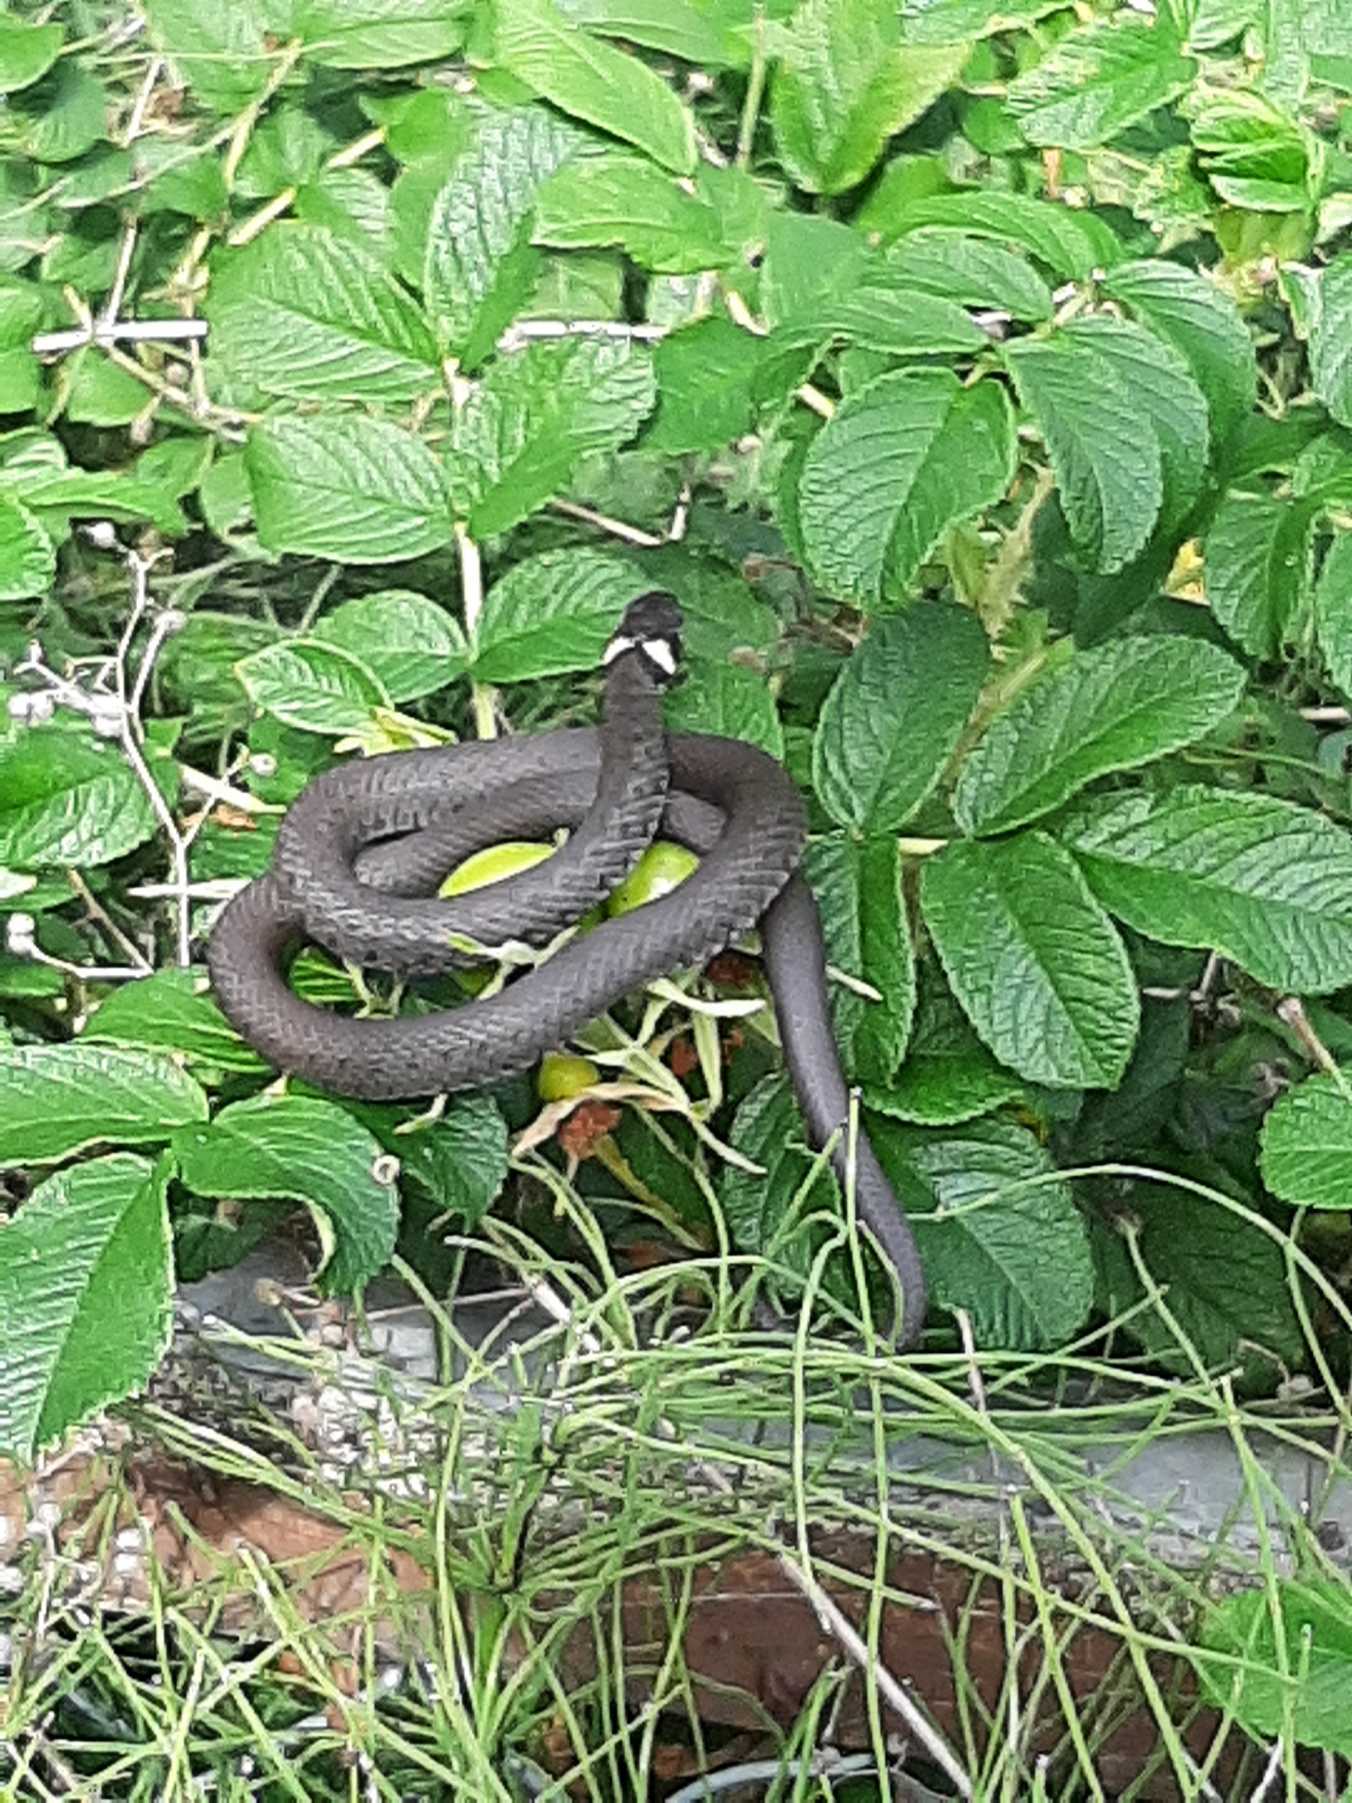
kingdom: Animalia
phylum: Chordata
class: Squamata
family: Colubridae
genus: Natrix
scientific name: Natrix natrix
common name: Snog
